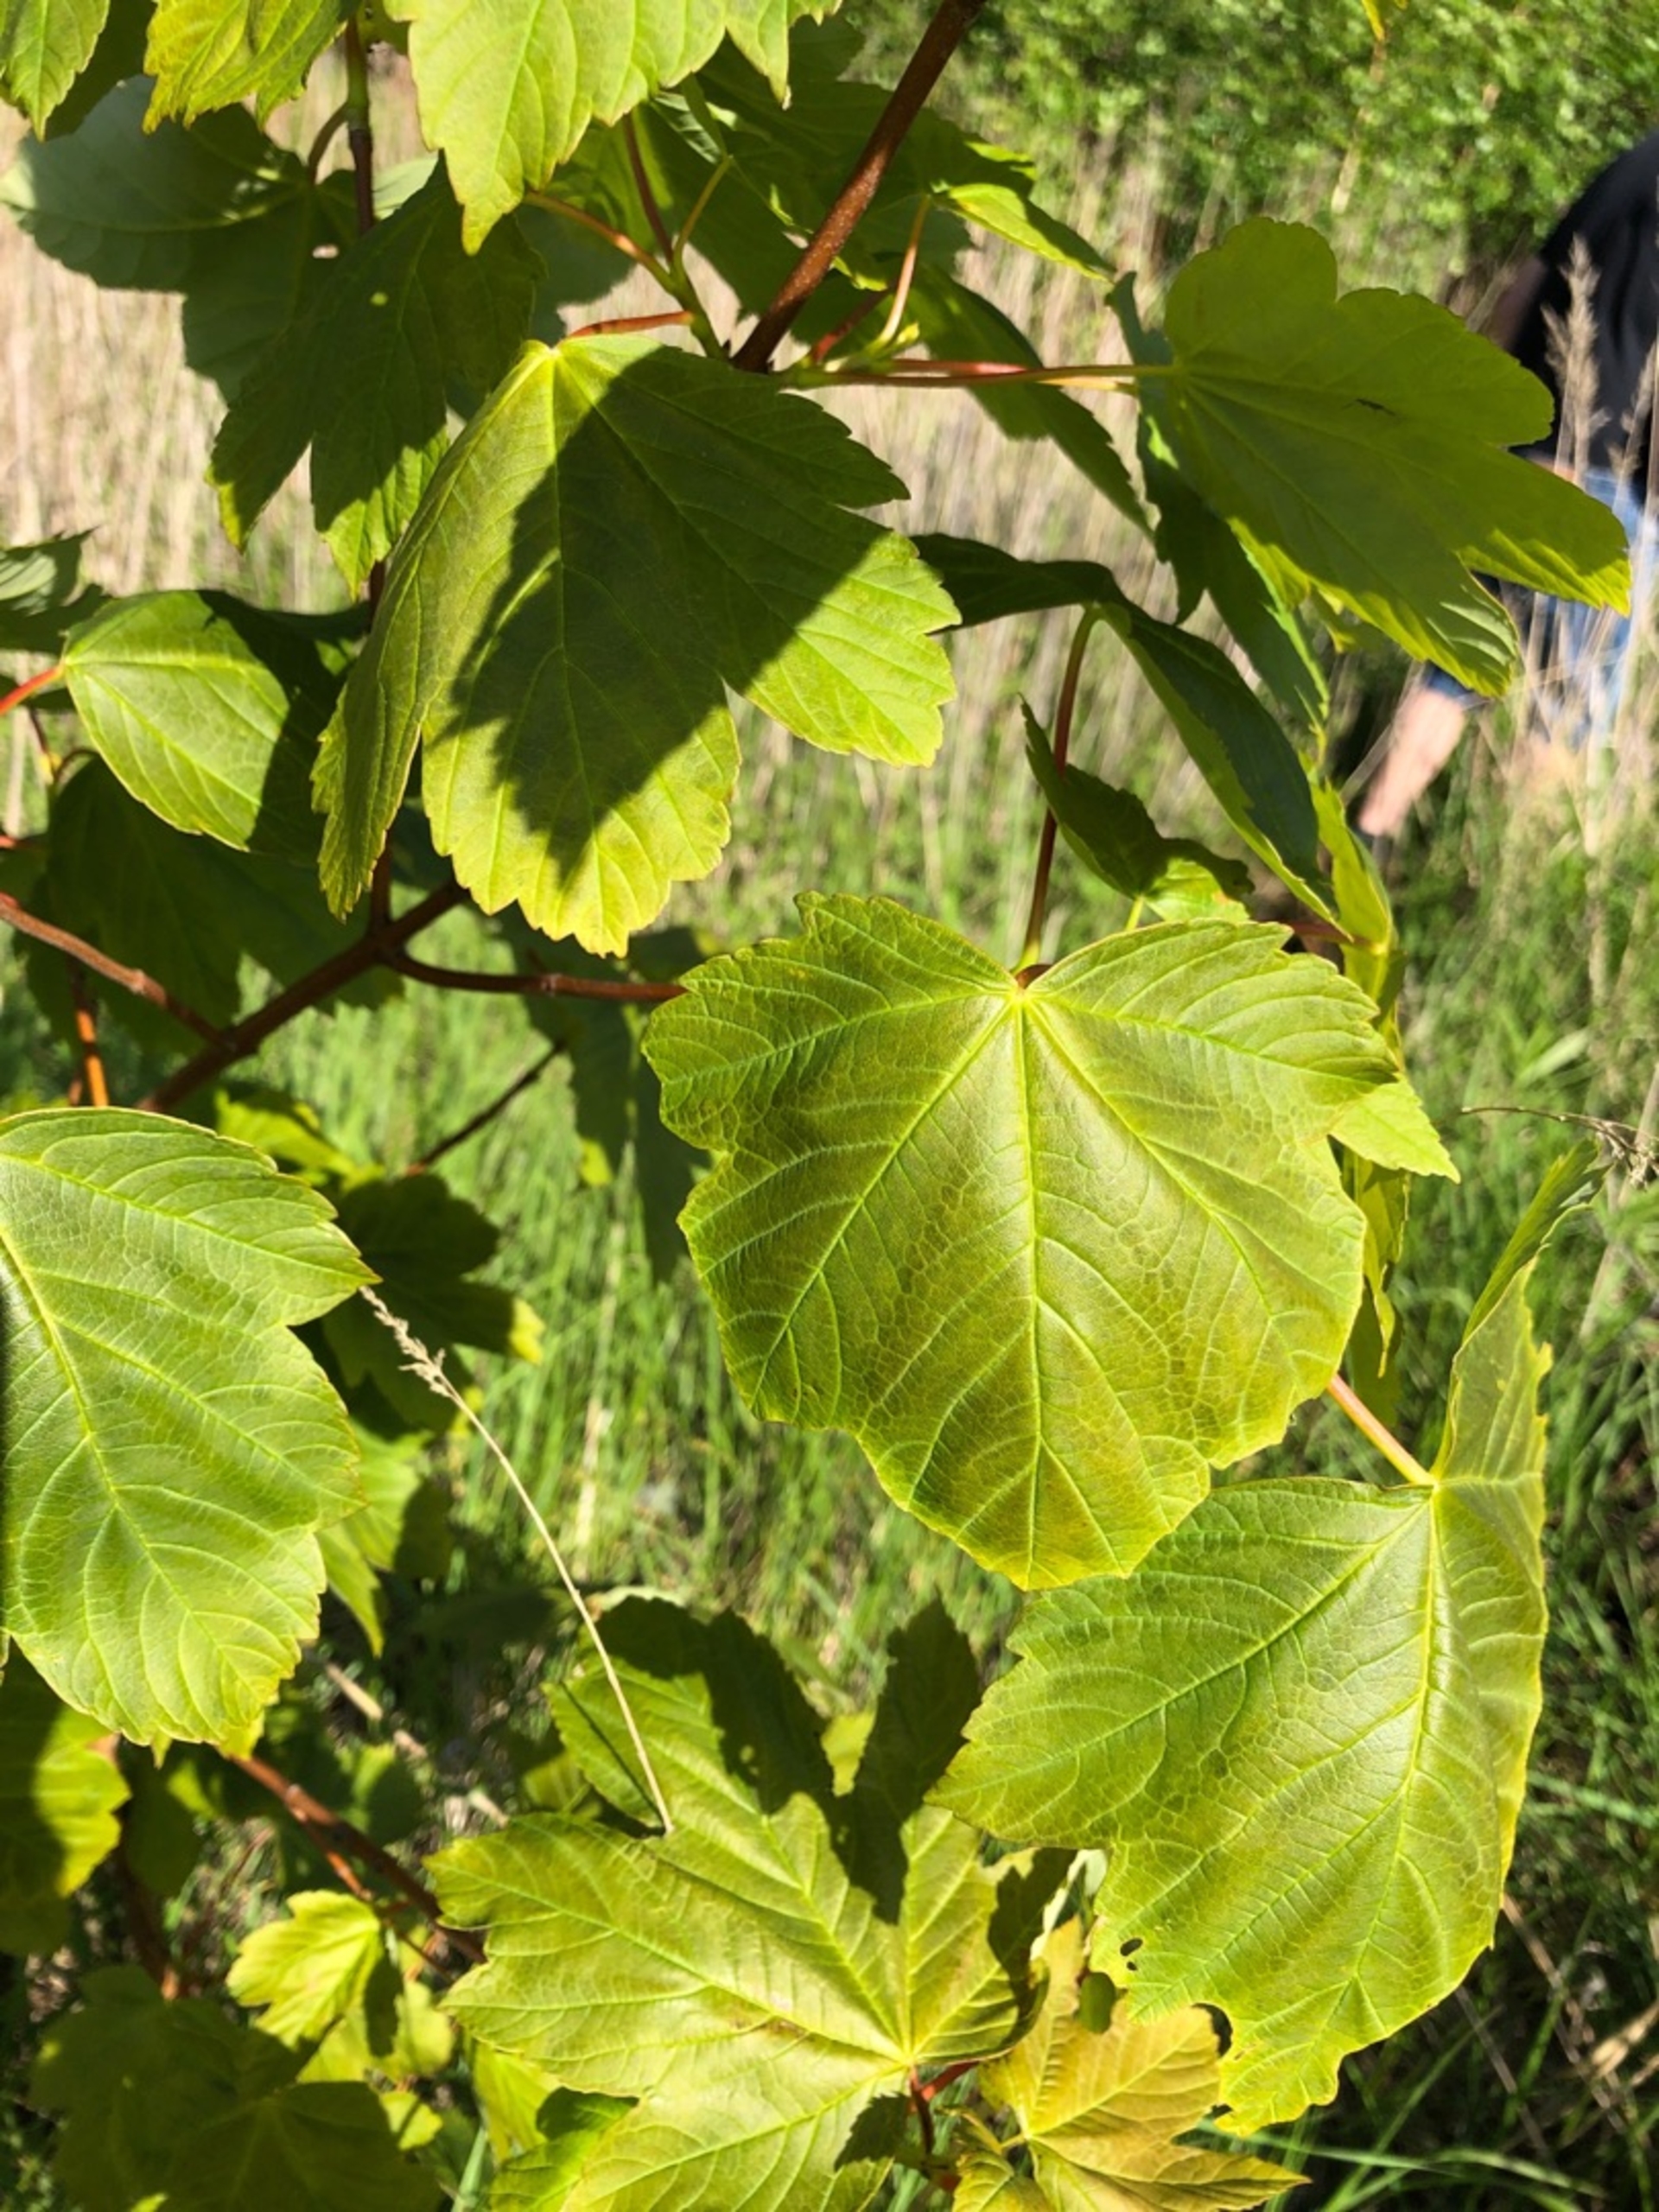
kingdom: Plantae
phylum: Tracheophyta
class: Magnoliopsida
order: Sapindales
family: Sapindaceae
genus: Acer
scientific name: Acer pseudoplatanus
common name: Ahorn
